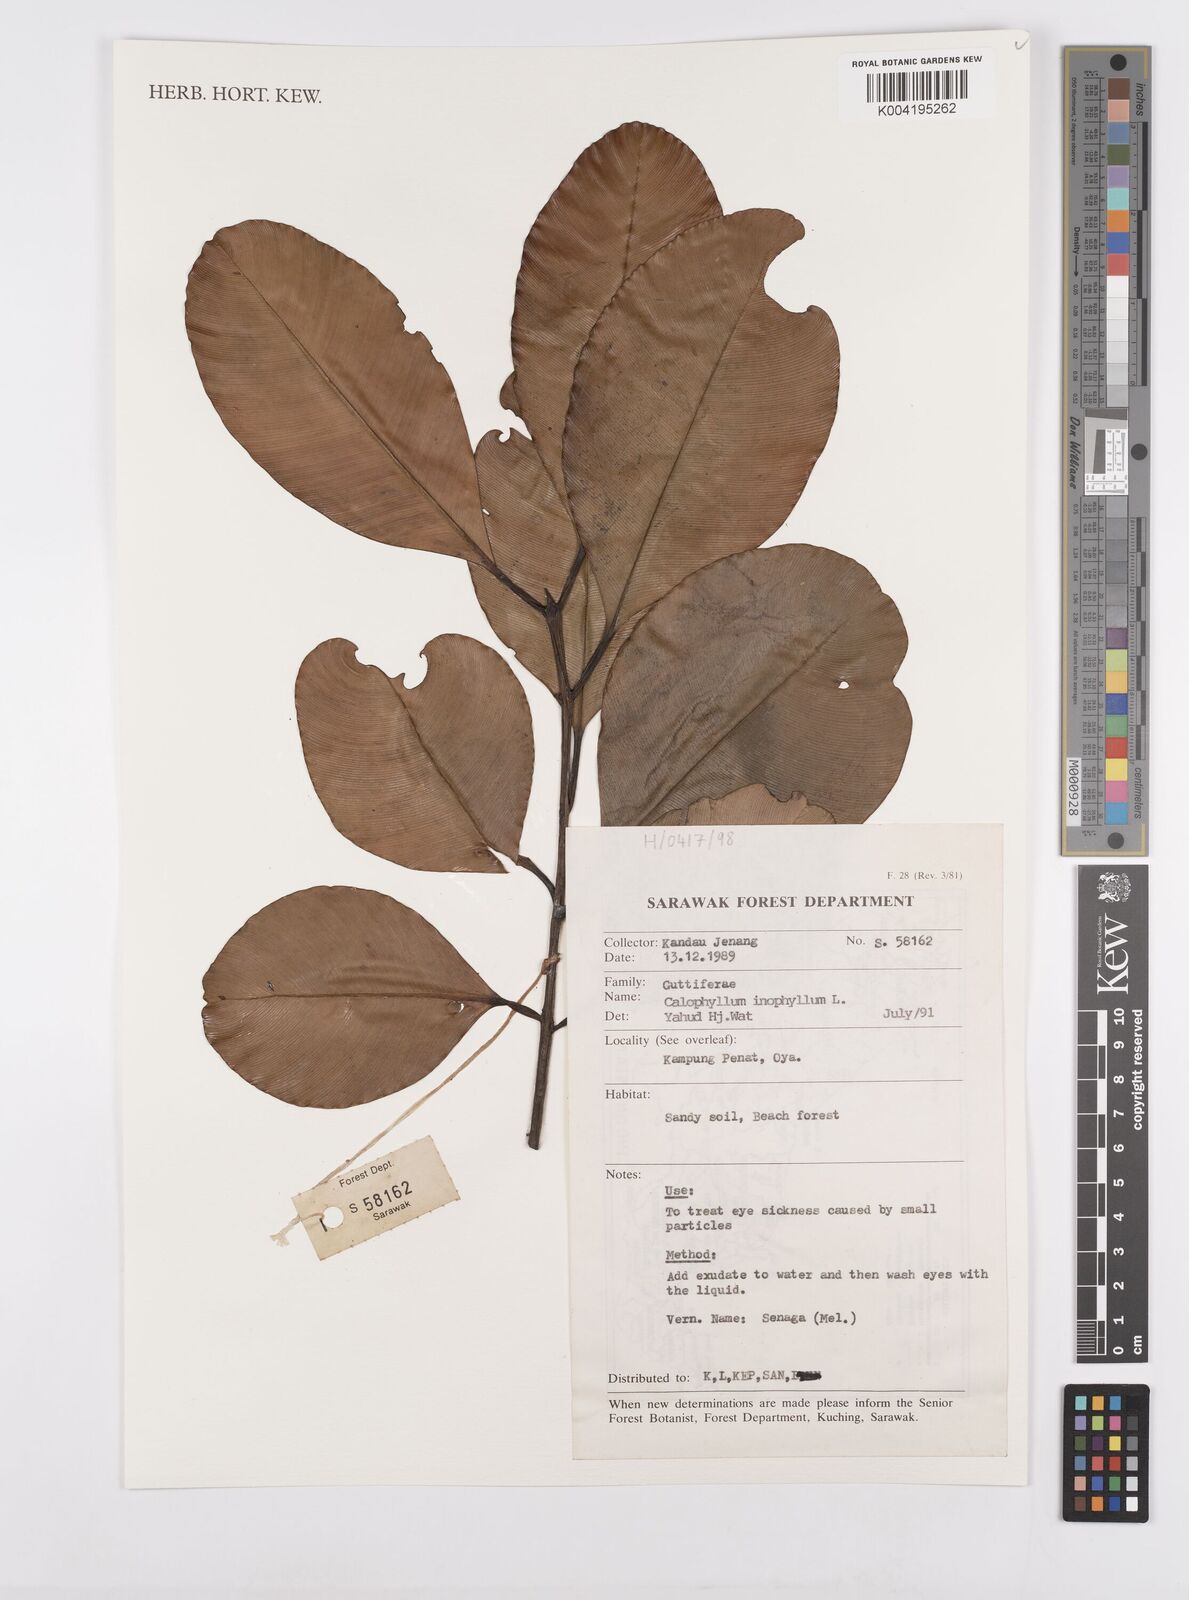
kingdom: Plantae
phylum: Tracheophyta
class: Magnoliopsida
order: Malpighiales
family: Calophyllaceae
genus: Calophyllum
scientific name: Calophyllum inophyllum
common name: Alexandrian laurel
